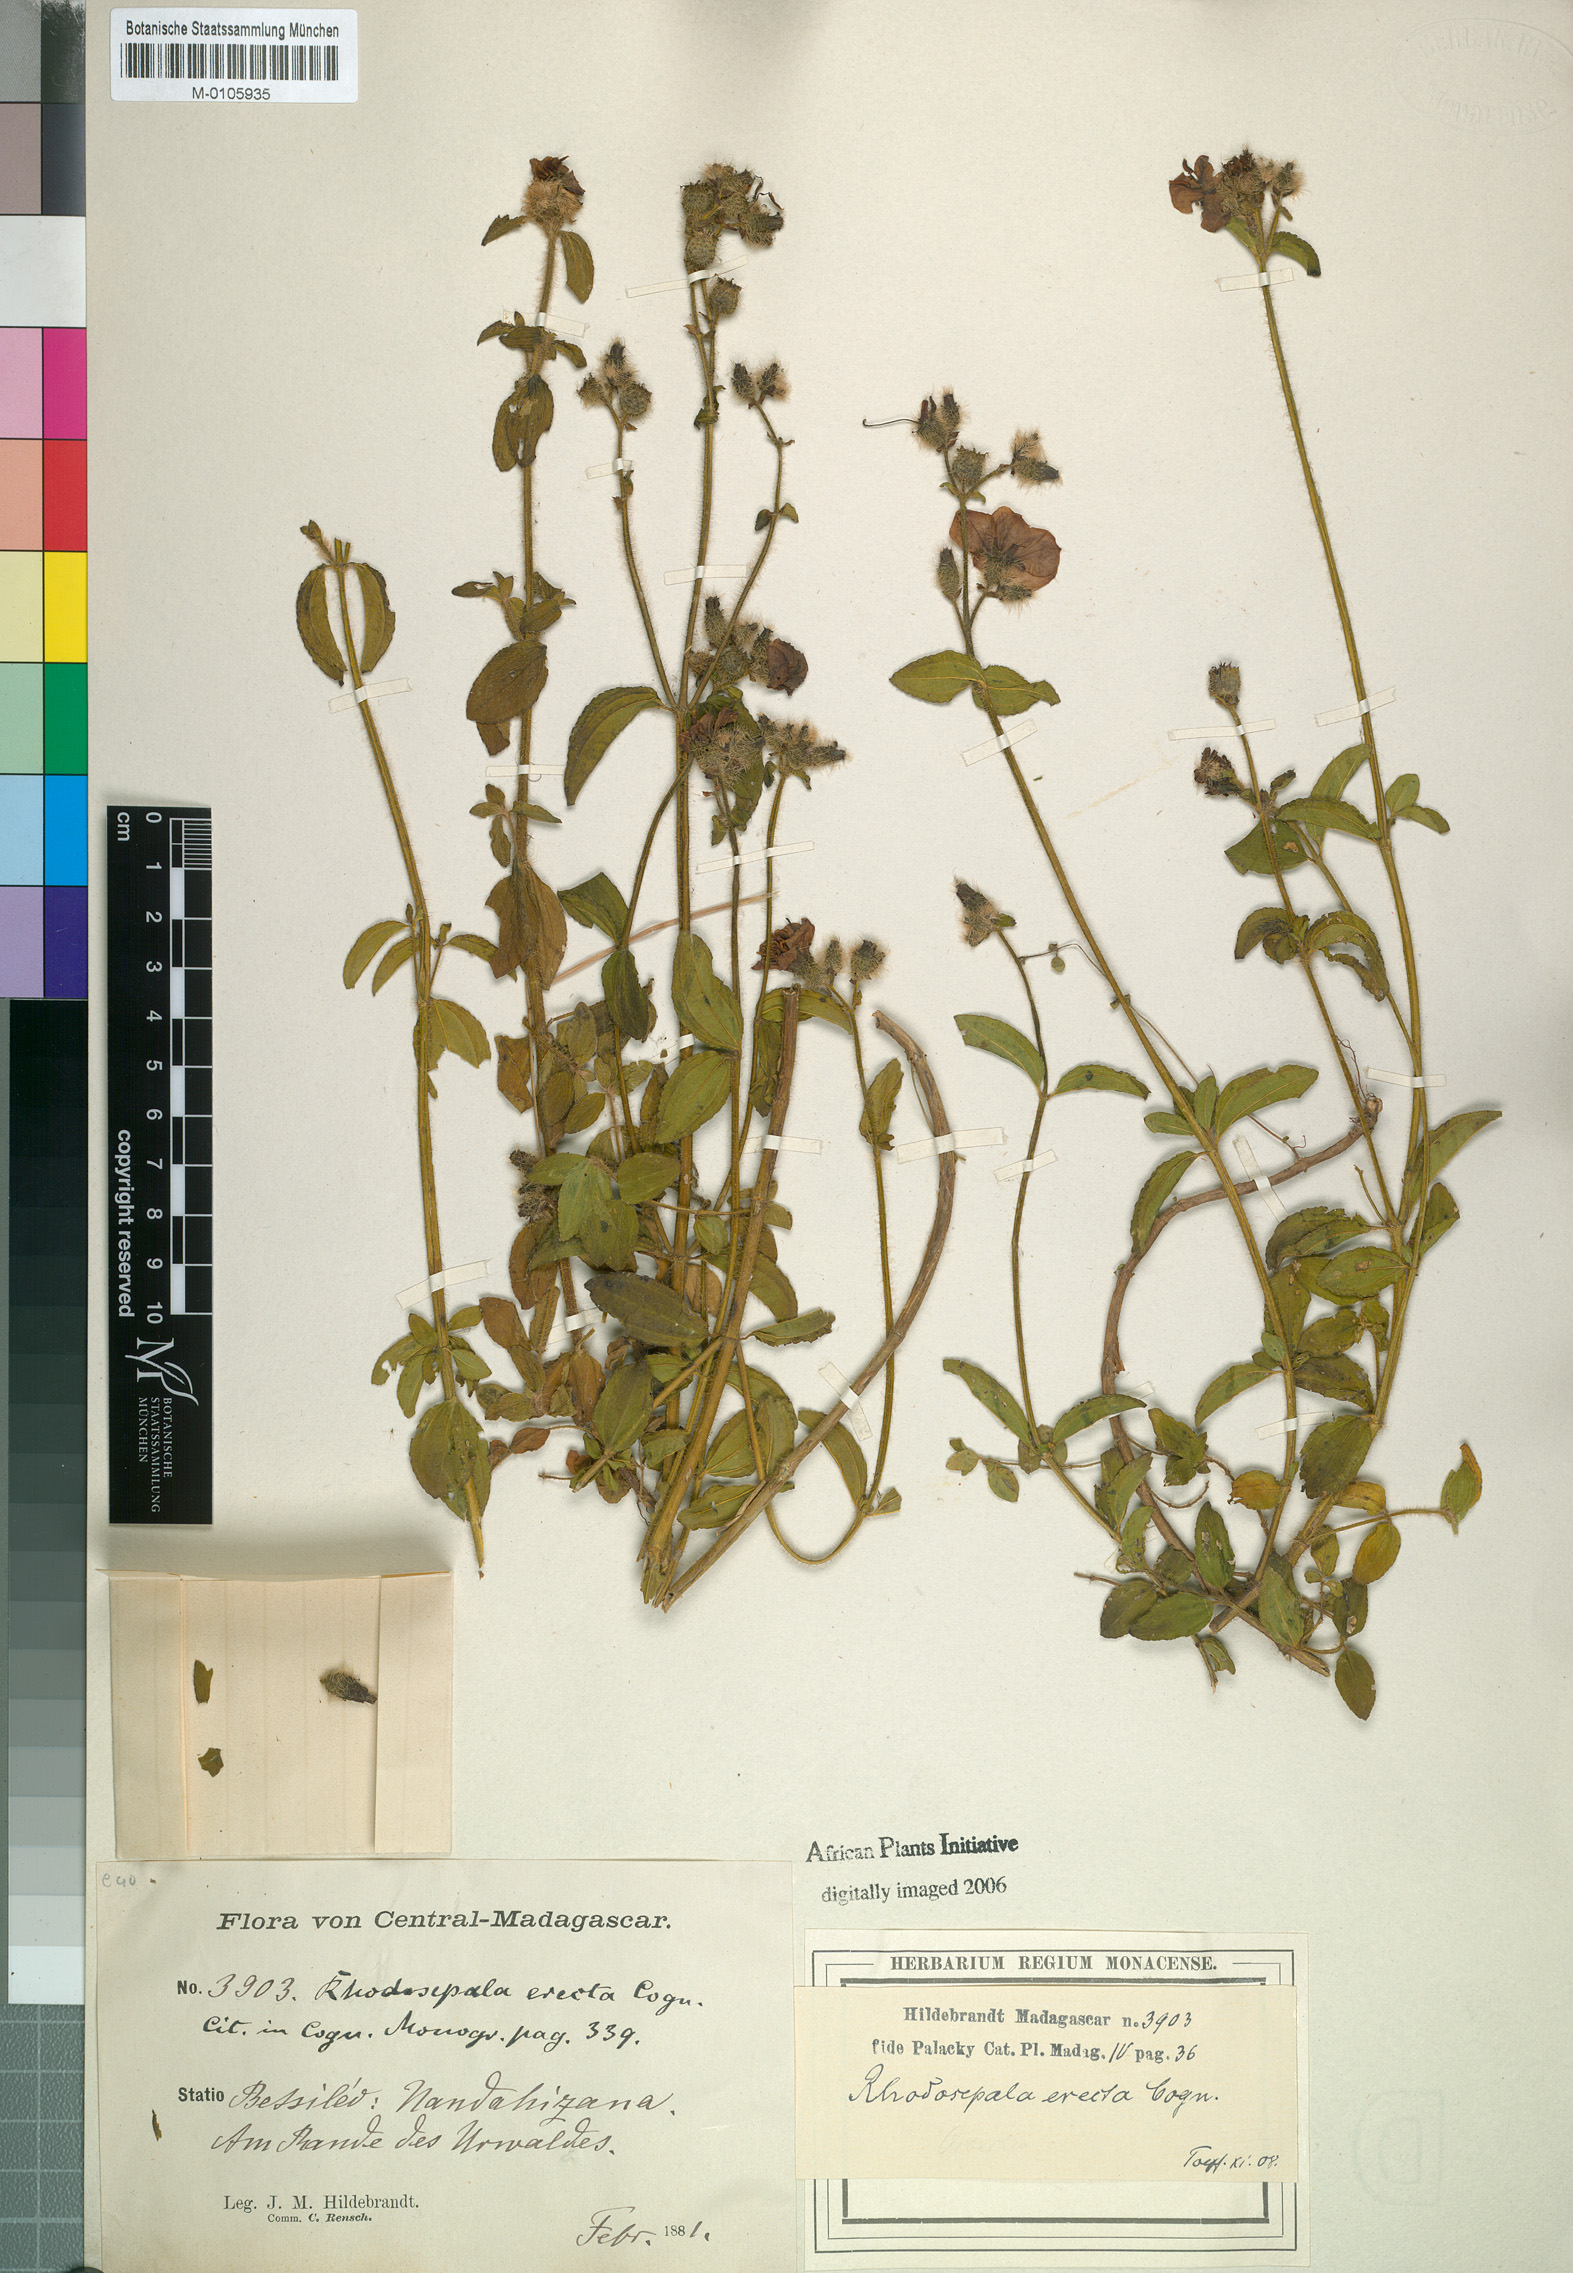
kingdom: Plantae
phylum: Tracheophyta
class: Magnoliopsida
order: Myrtales
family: Melastomataceae
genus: Nerophila
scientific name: Nerophila pauciflora
